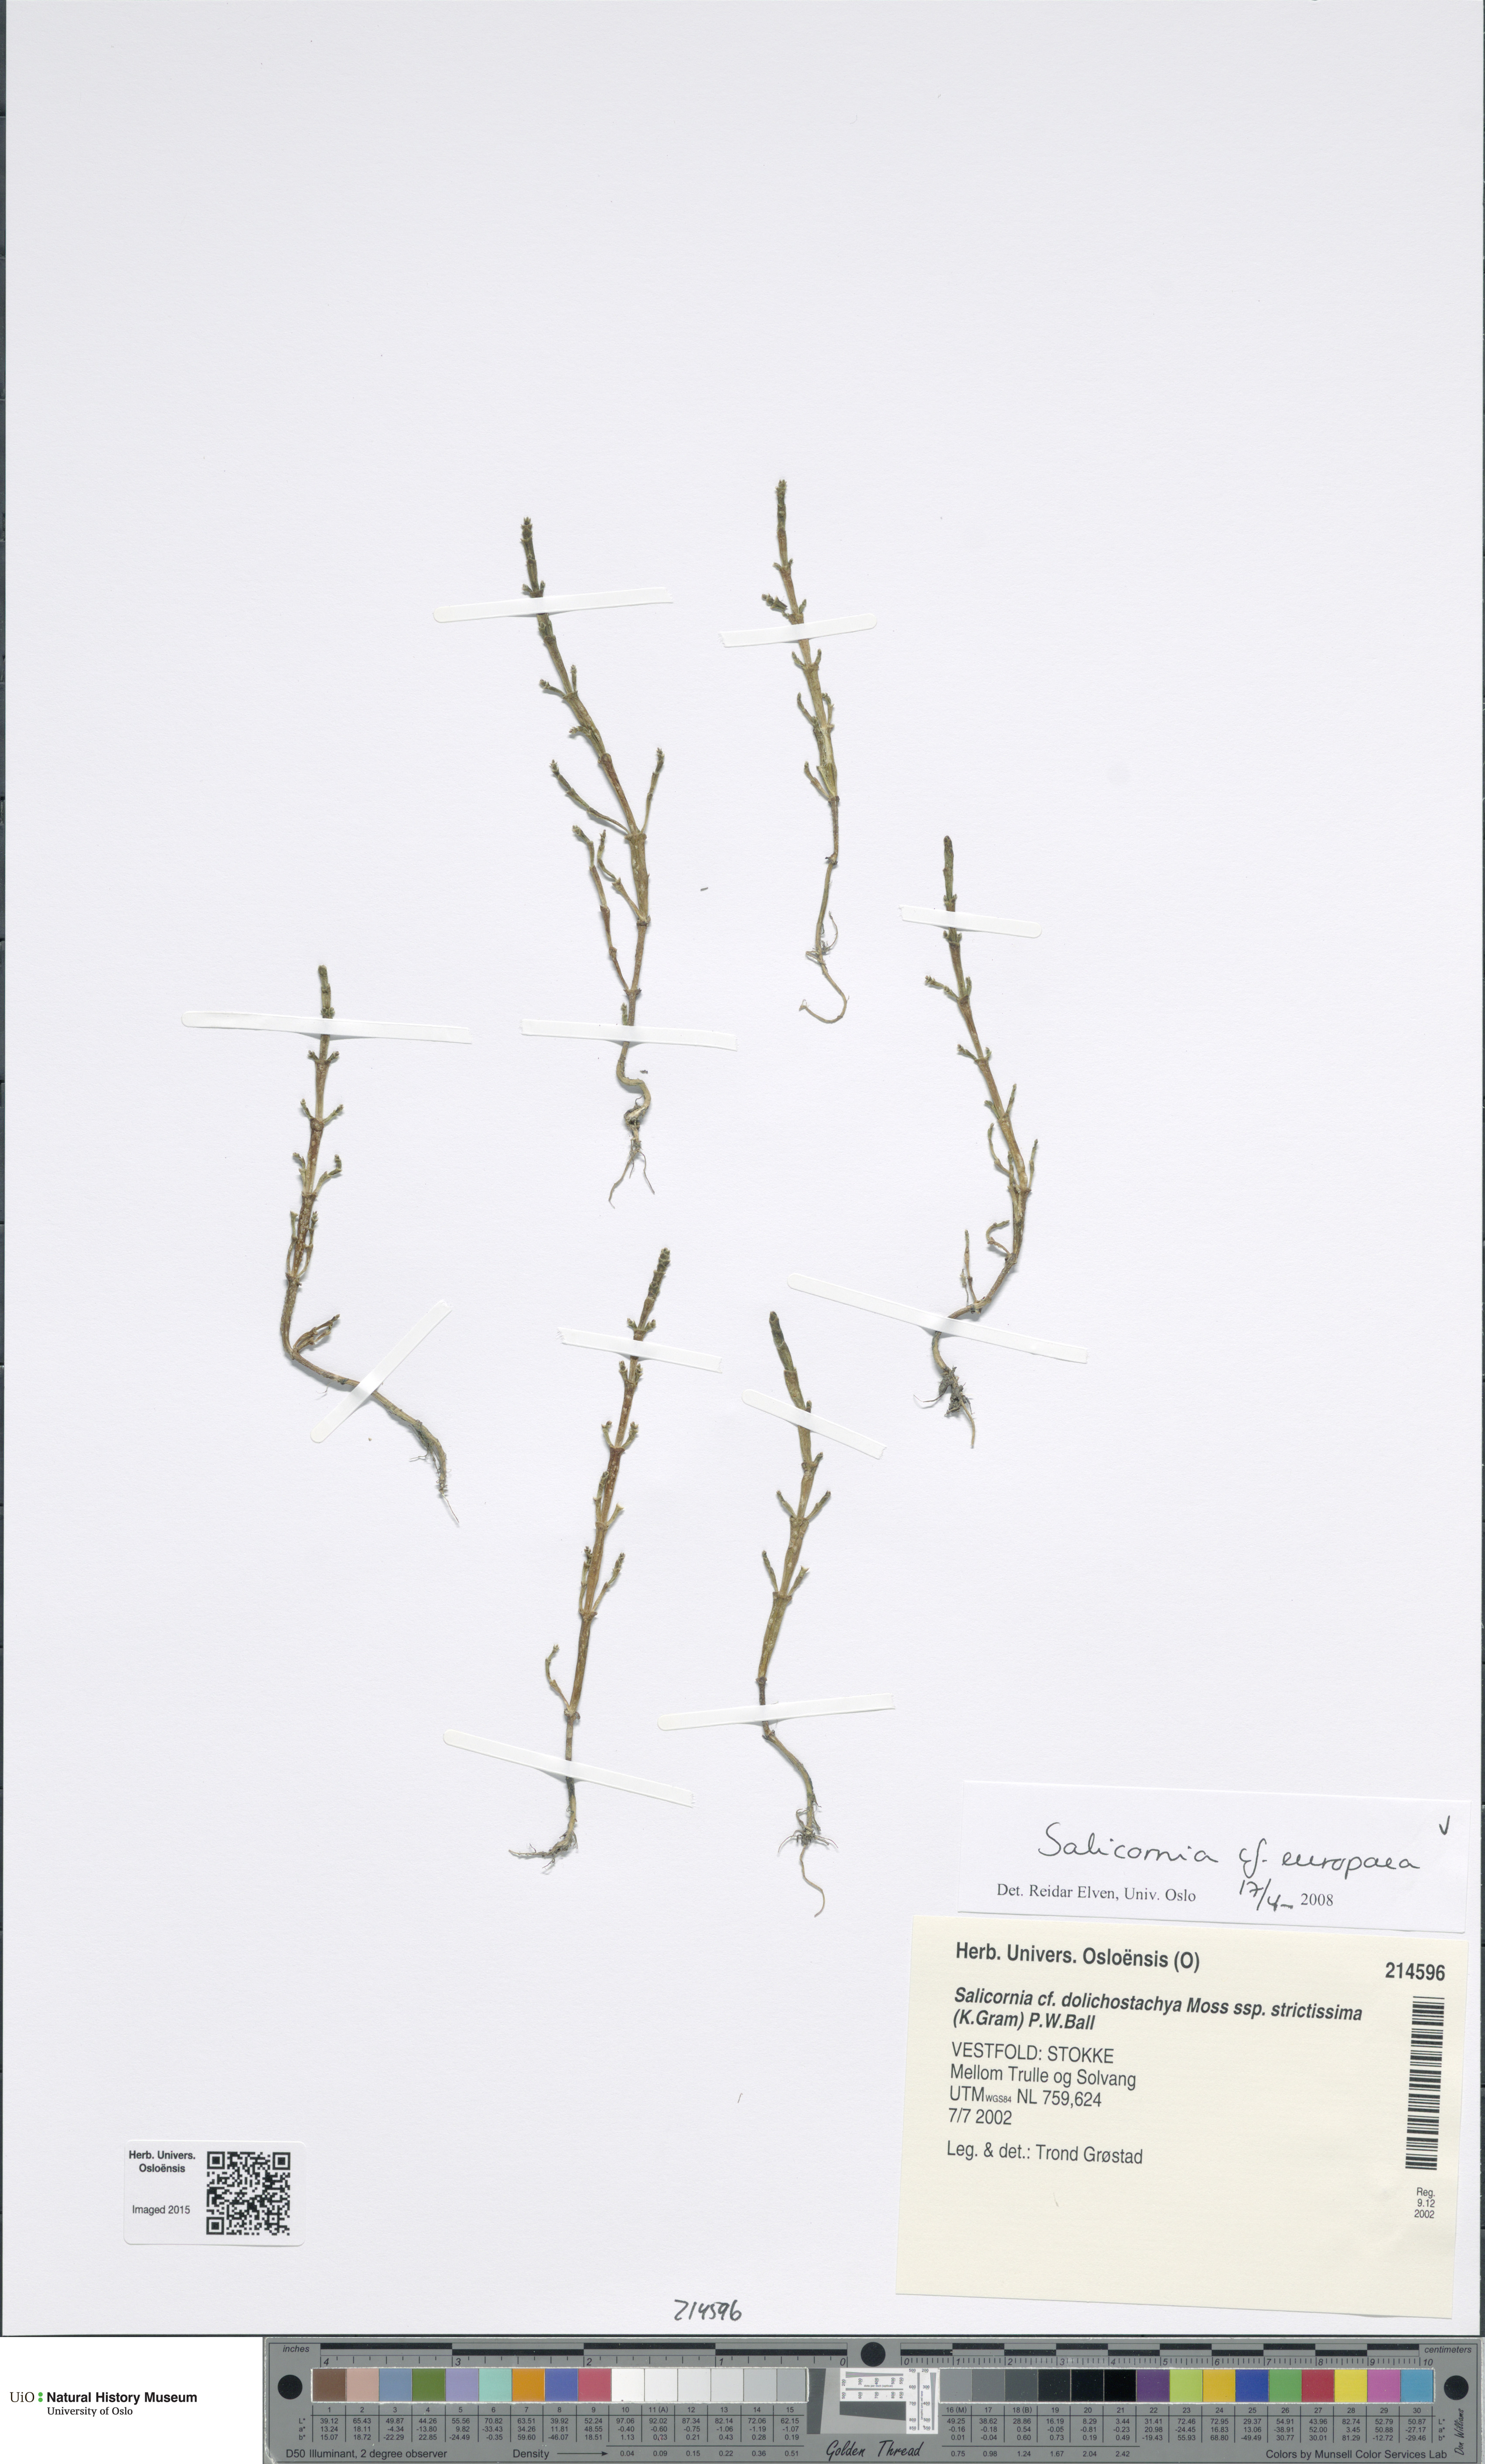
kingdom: Plantae
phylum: Tracheophyta
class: Magnoliopsida
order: Caryophyllales
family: Amaranthaceae
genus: Salicornia
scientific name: Salicornia europaea
